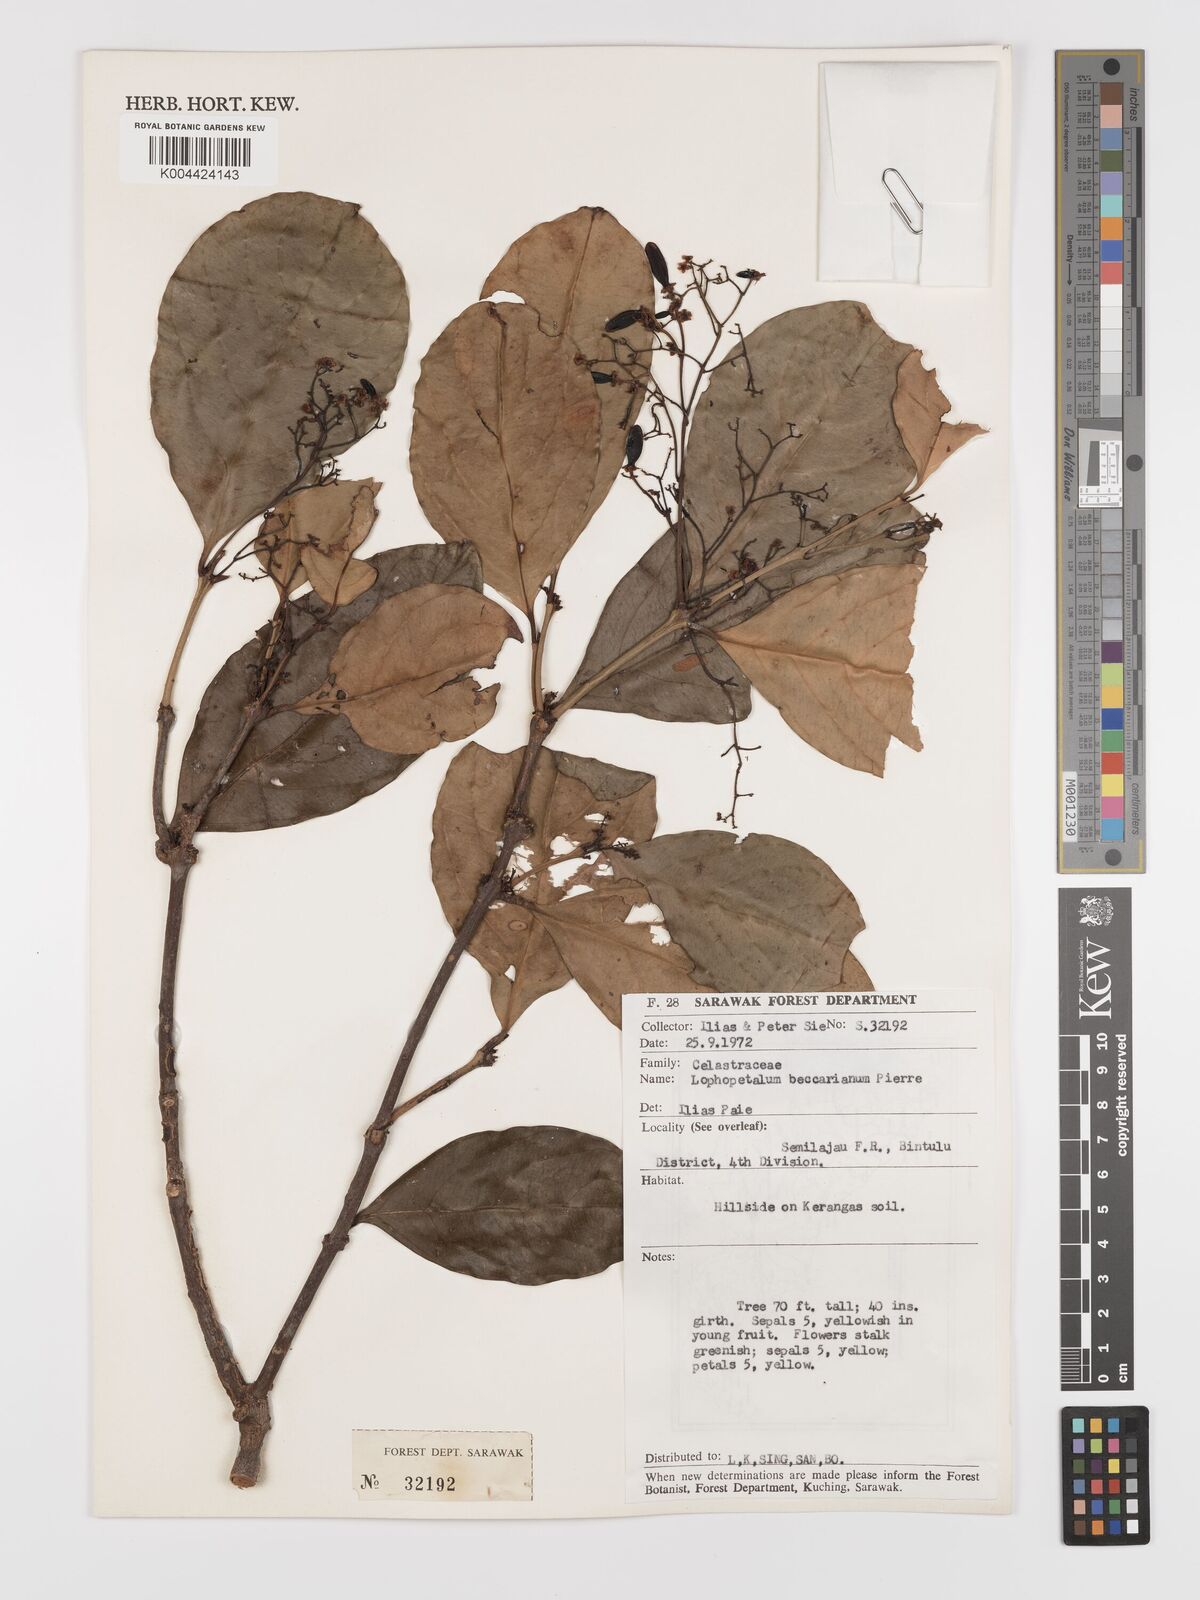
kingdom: Plantae
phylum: Tracheophyta
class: Magnoliopsida
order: Celastrales
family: Celastraceae
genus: Lophopetalum
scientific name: Lophopetalum beccarianum
